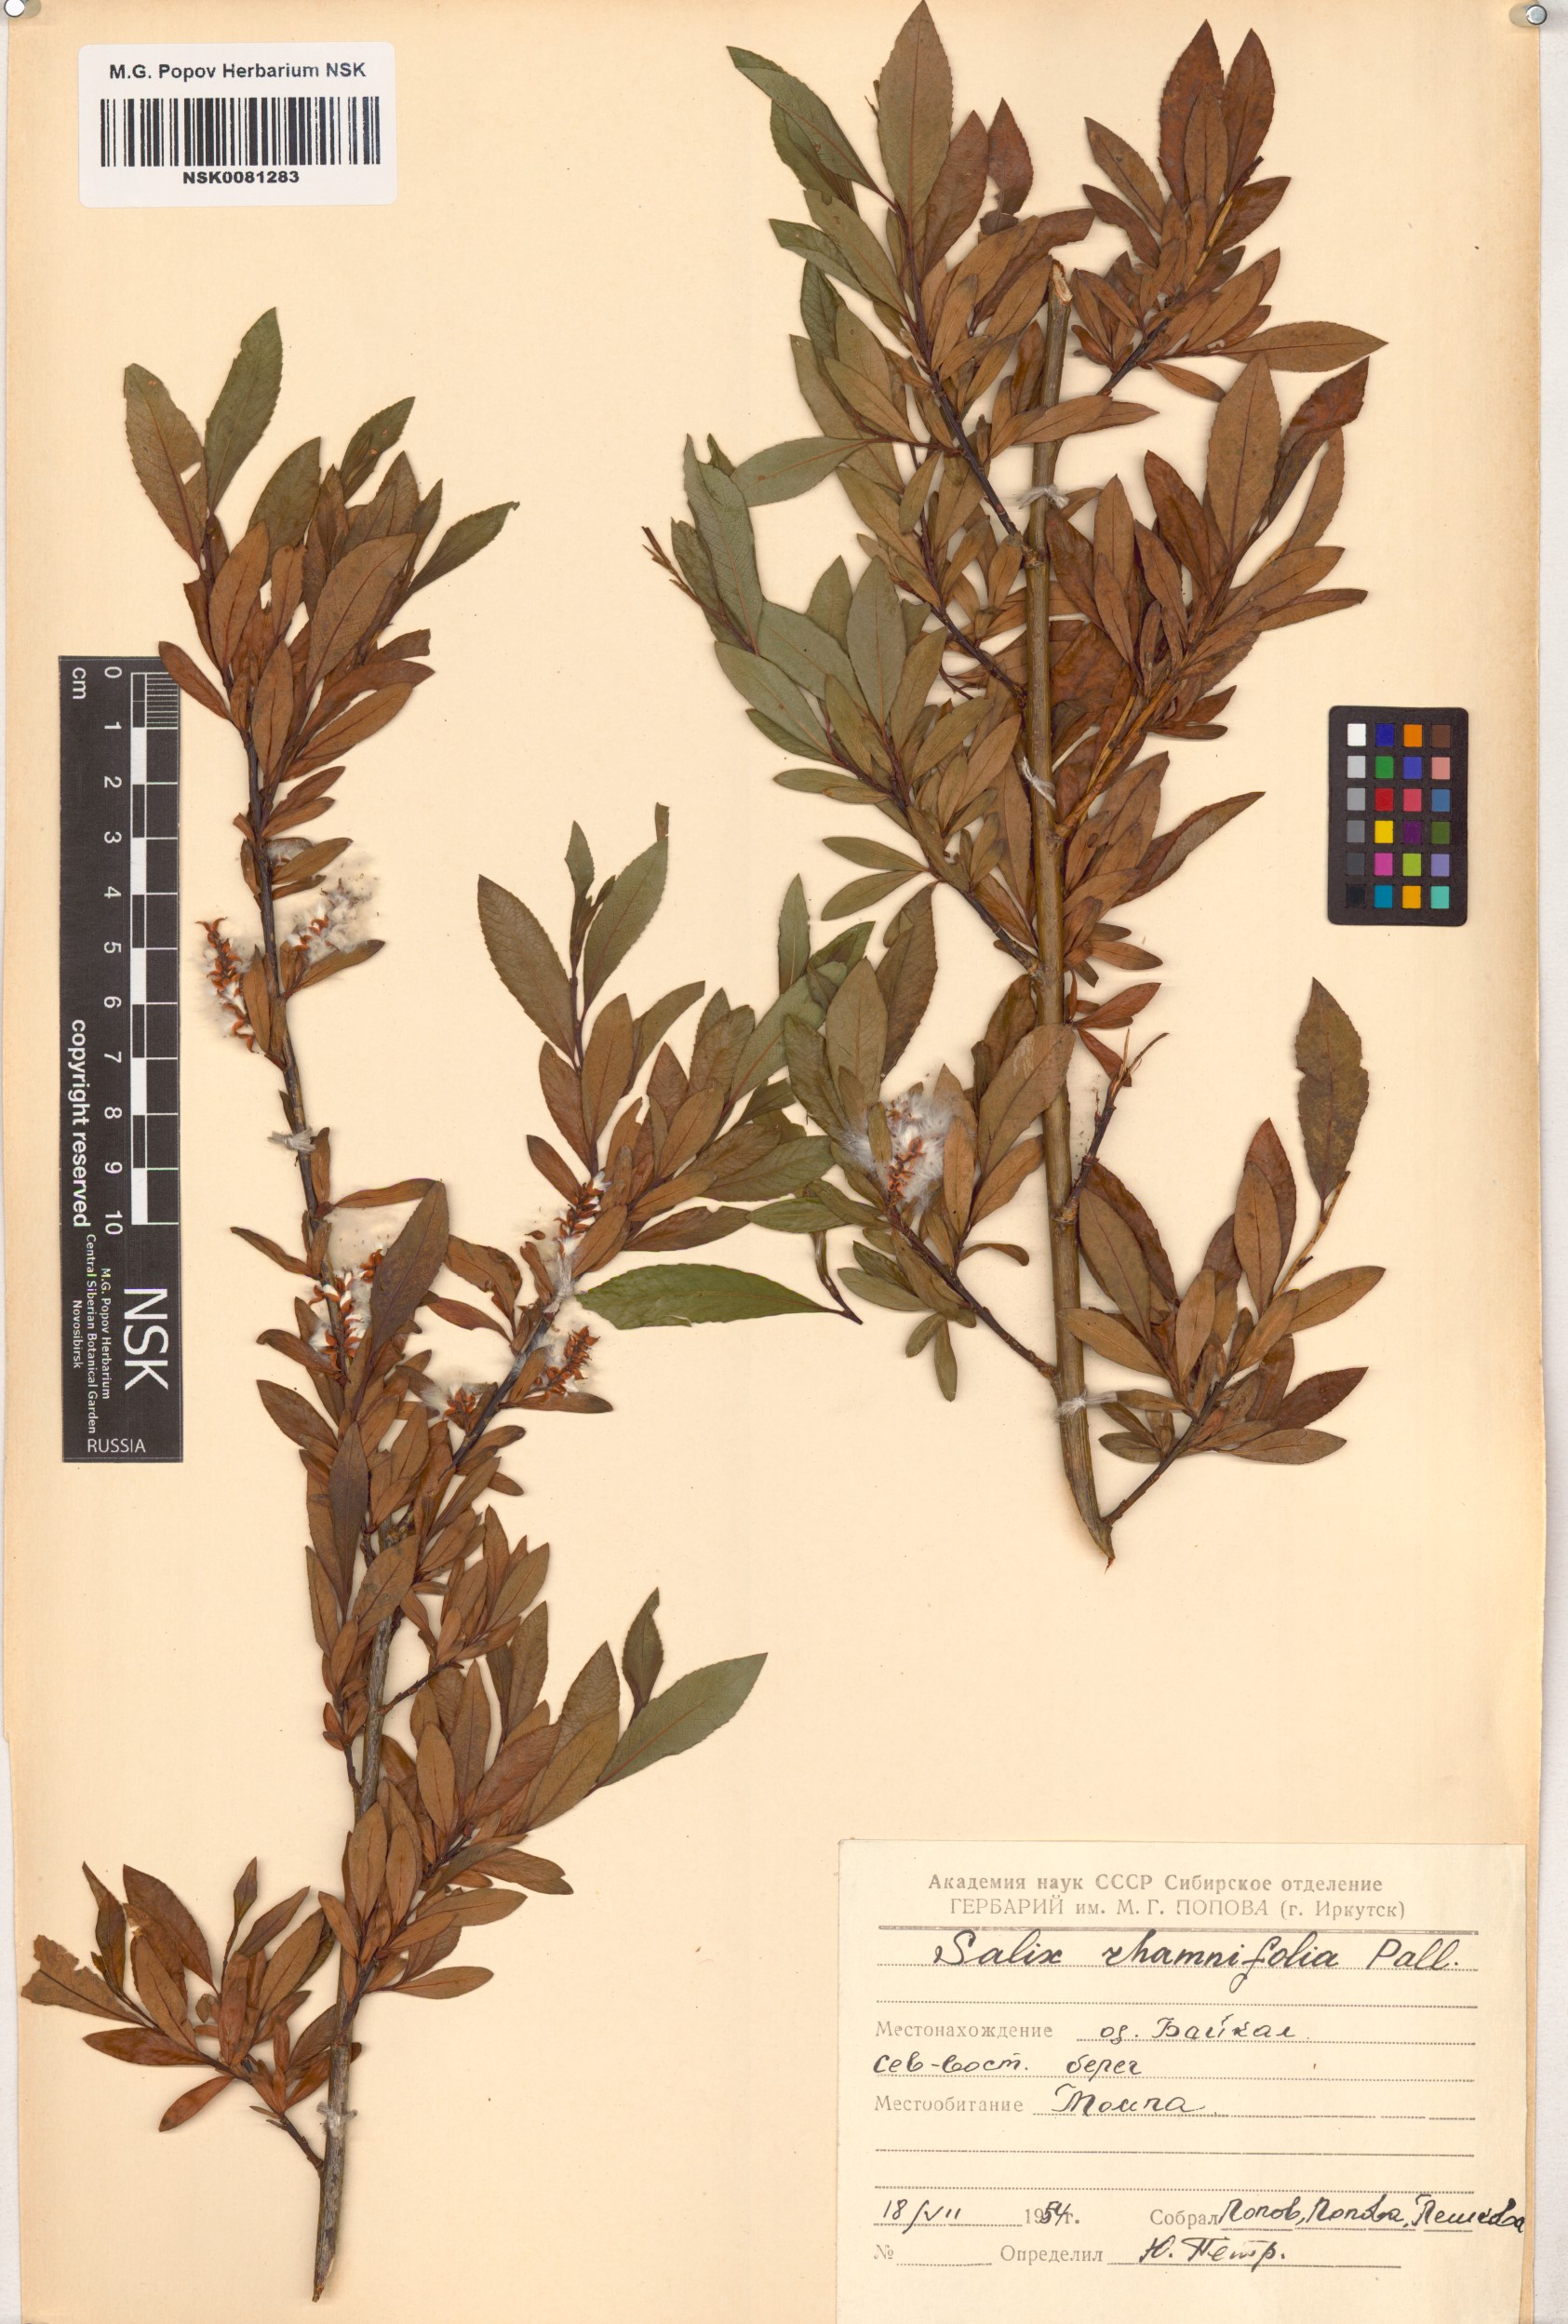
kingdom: Plantae
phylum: Tracheophyta
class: Magnoliopsida
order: Malpighiales
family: Salicaceae
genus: Salix
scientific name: Salix rhamnifolia
